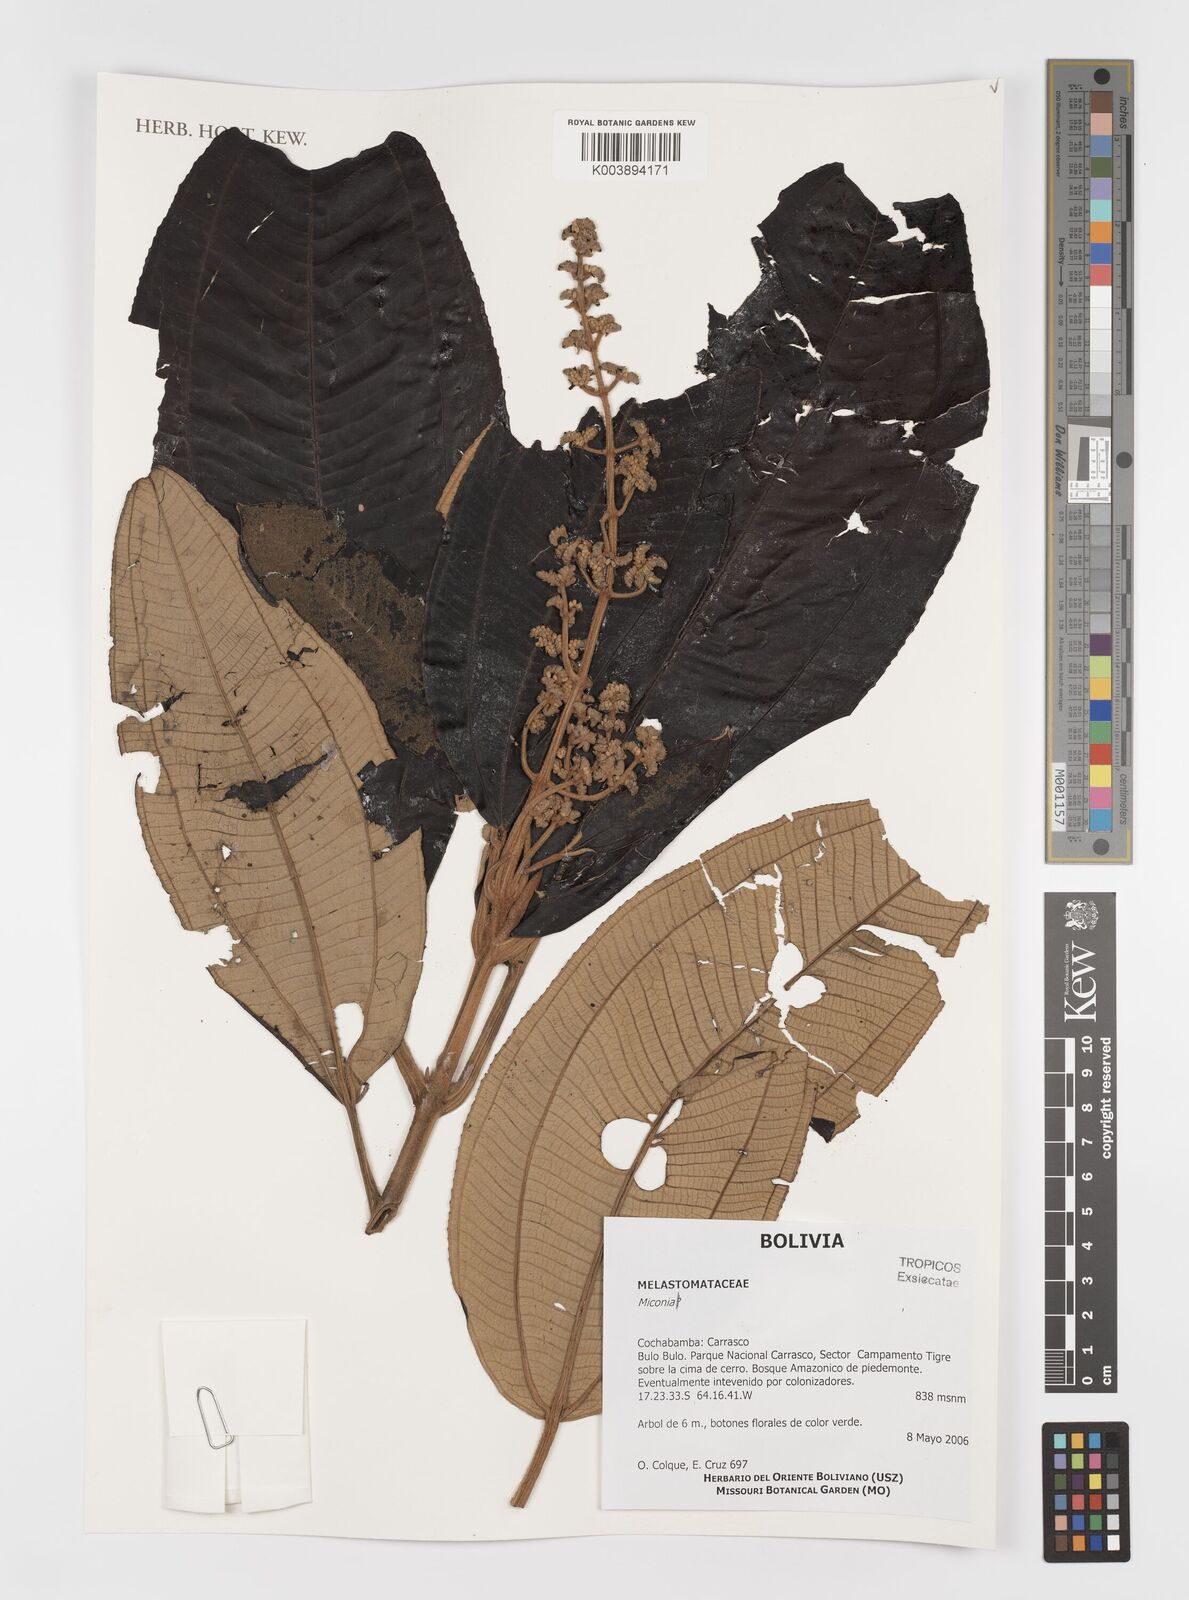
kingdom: Plantae
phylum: Tracheophyta
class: Magnoliopsida
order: Myrtales
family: Melastomataceae
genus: Miconia
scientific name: Miconia
